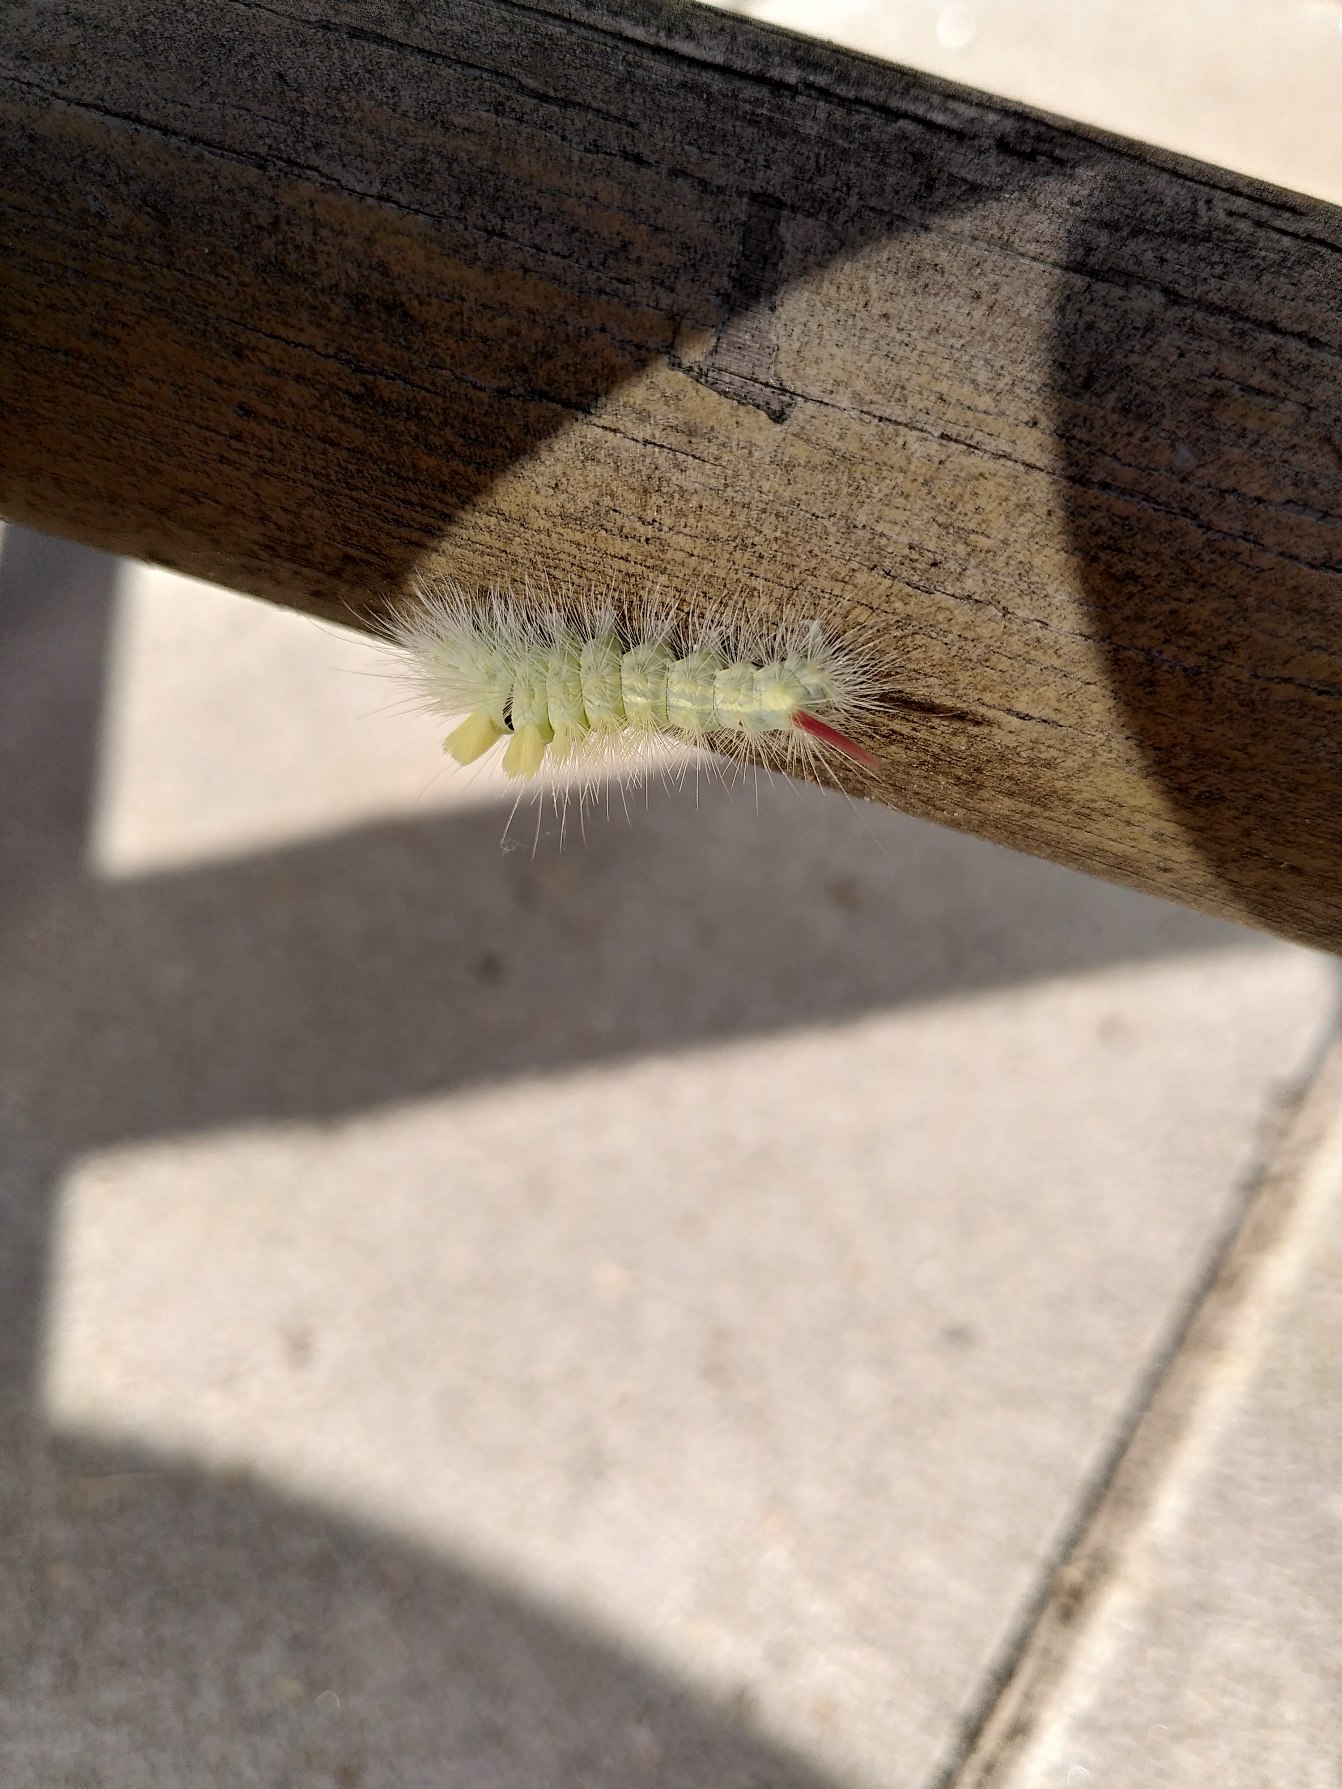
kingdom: Animalia
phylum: Arthropoda
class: Insecta
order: Lepidoptera
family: Erebidae
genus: Calliteara
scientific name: Calliteara pudibunda
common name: Bøgenonne
